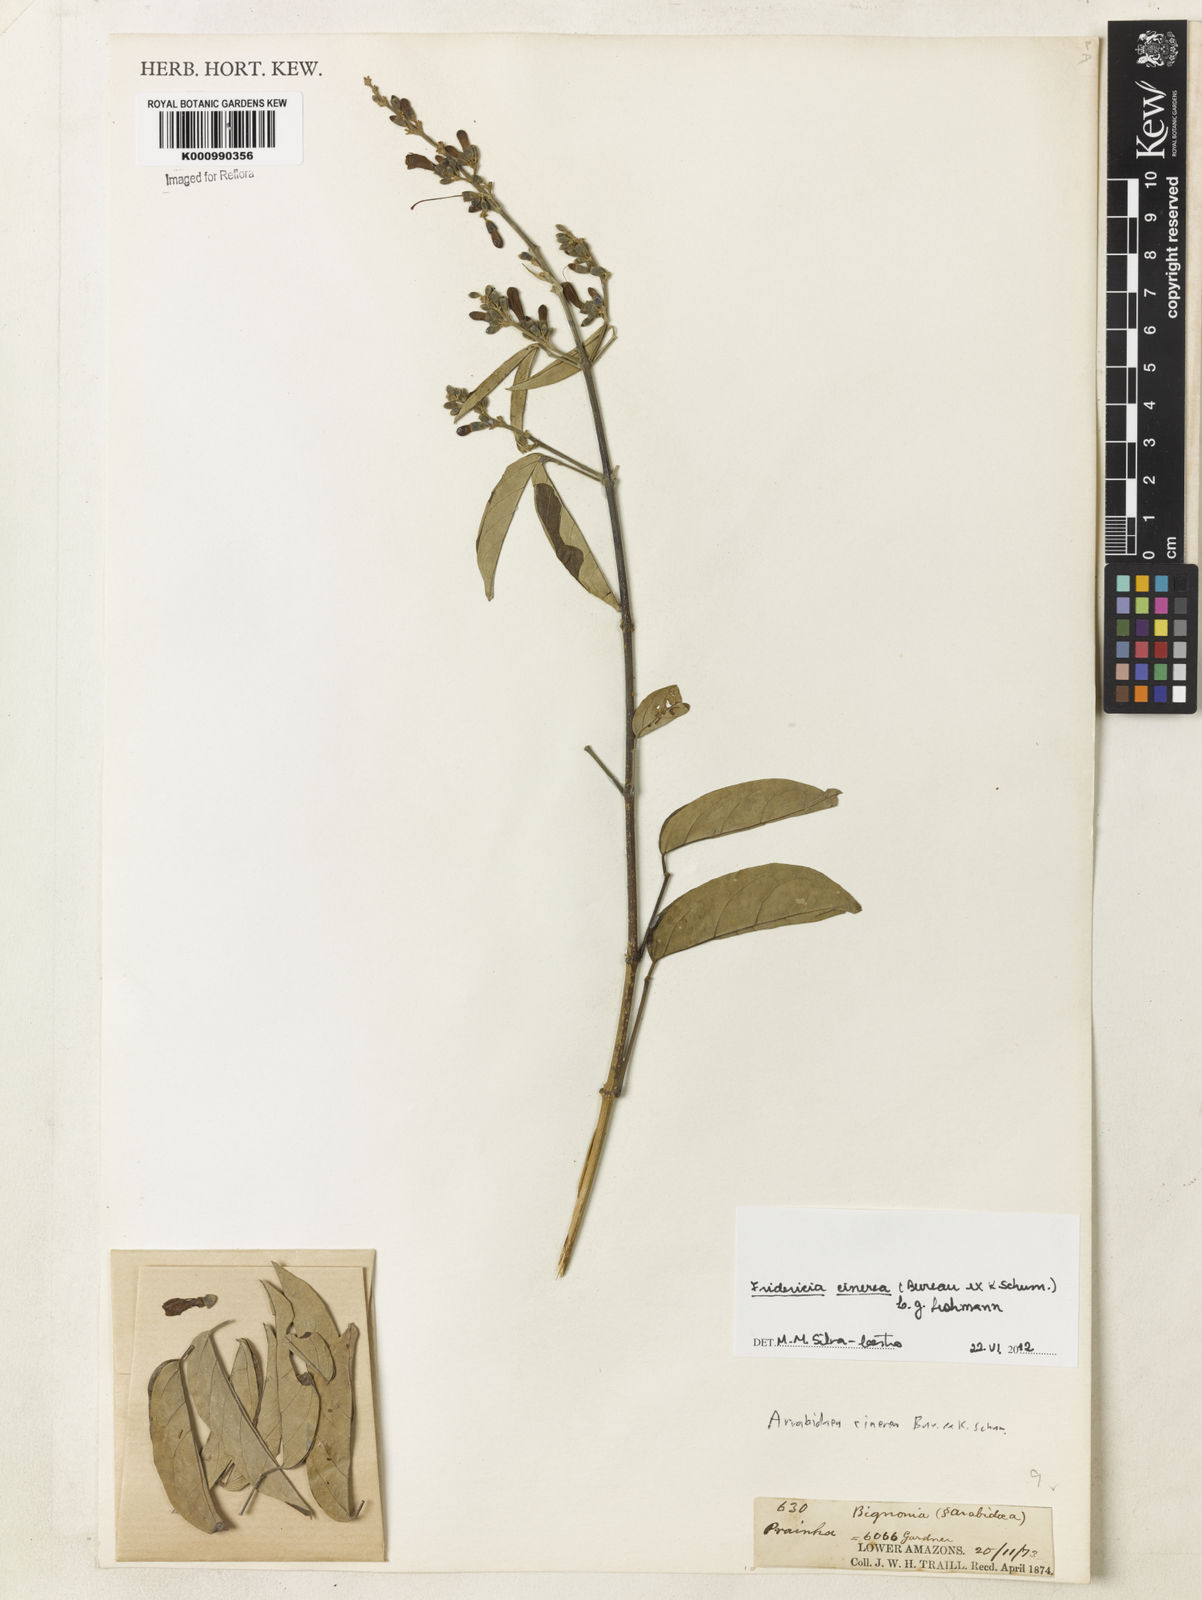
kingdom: Plantae
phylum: Tracheophyta
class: Magnoliopsida
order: Lamiales
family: Bignoniaceae
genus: Fridericia
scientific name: Fridericia cinerea
